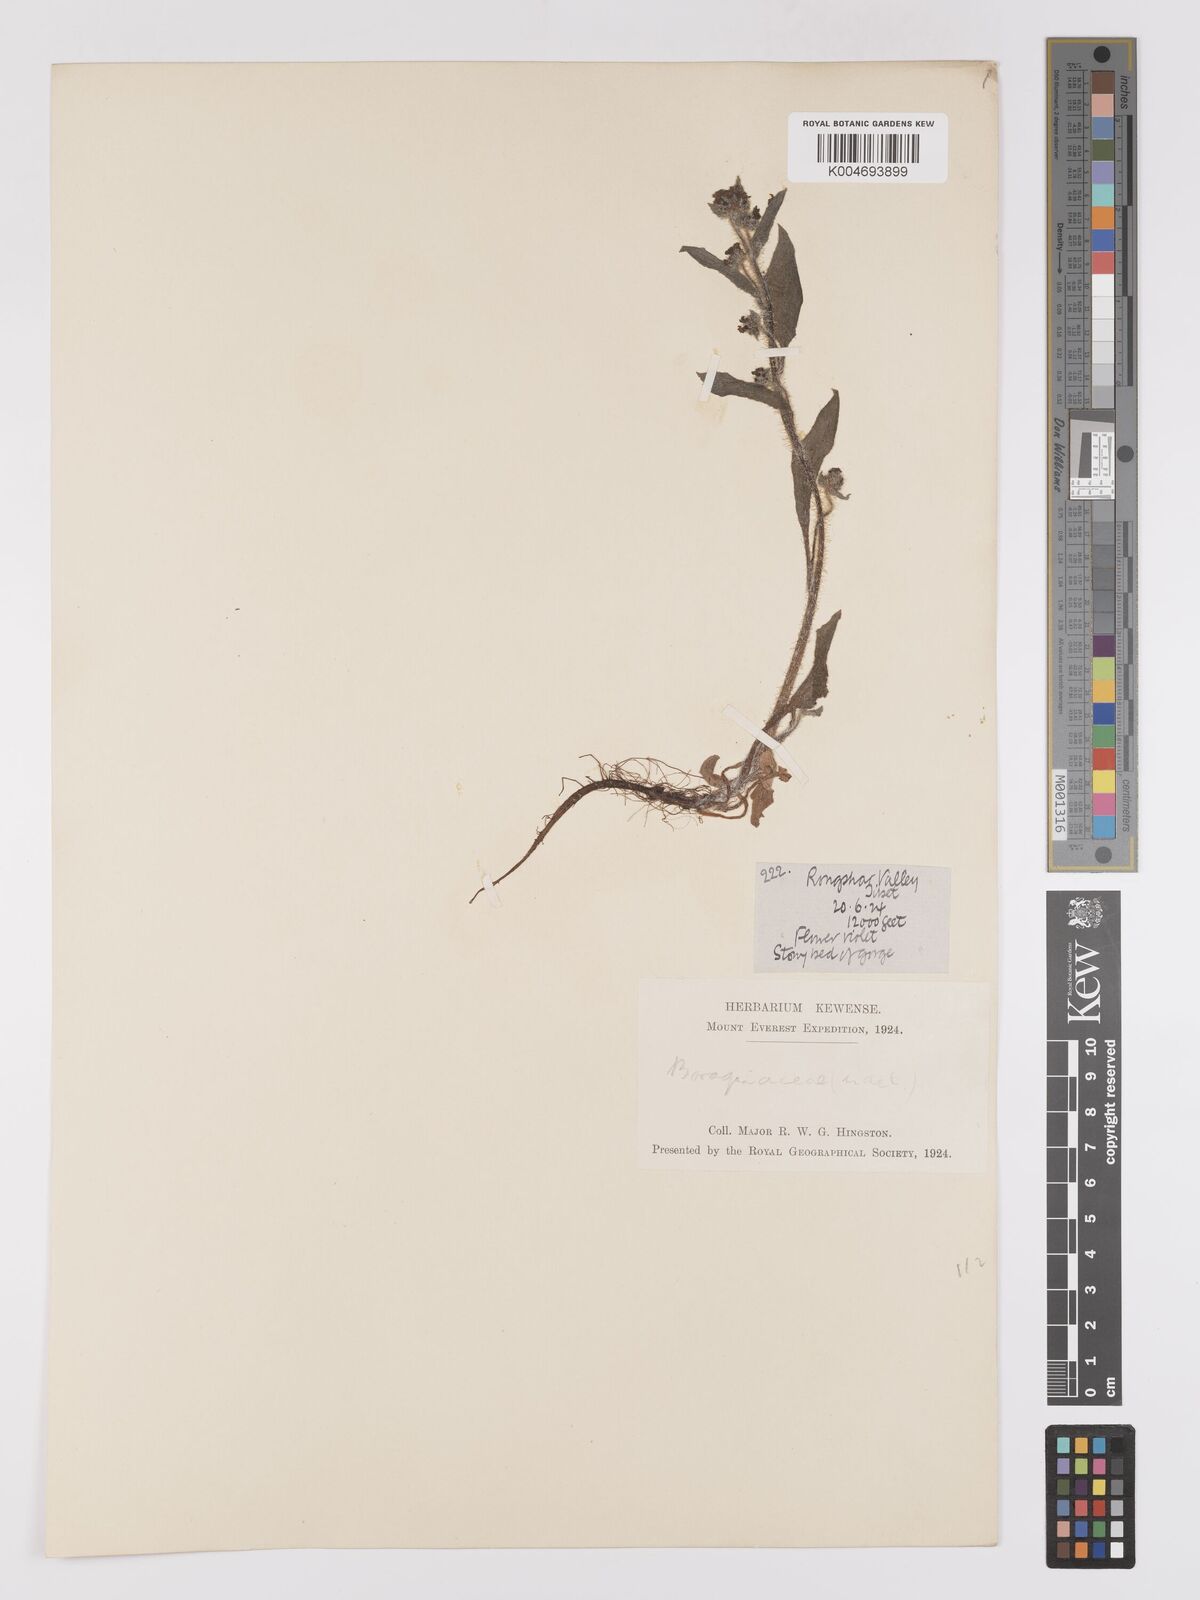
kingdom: Plantae
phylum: Tracheophyta
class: Magnoliopsida
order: Boraginales
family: Boraginaceae
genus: Microula
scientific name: Microula sikkimensis
